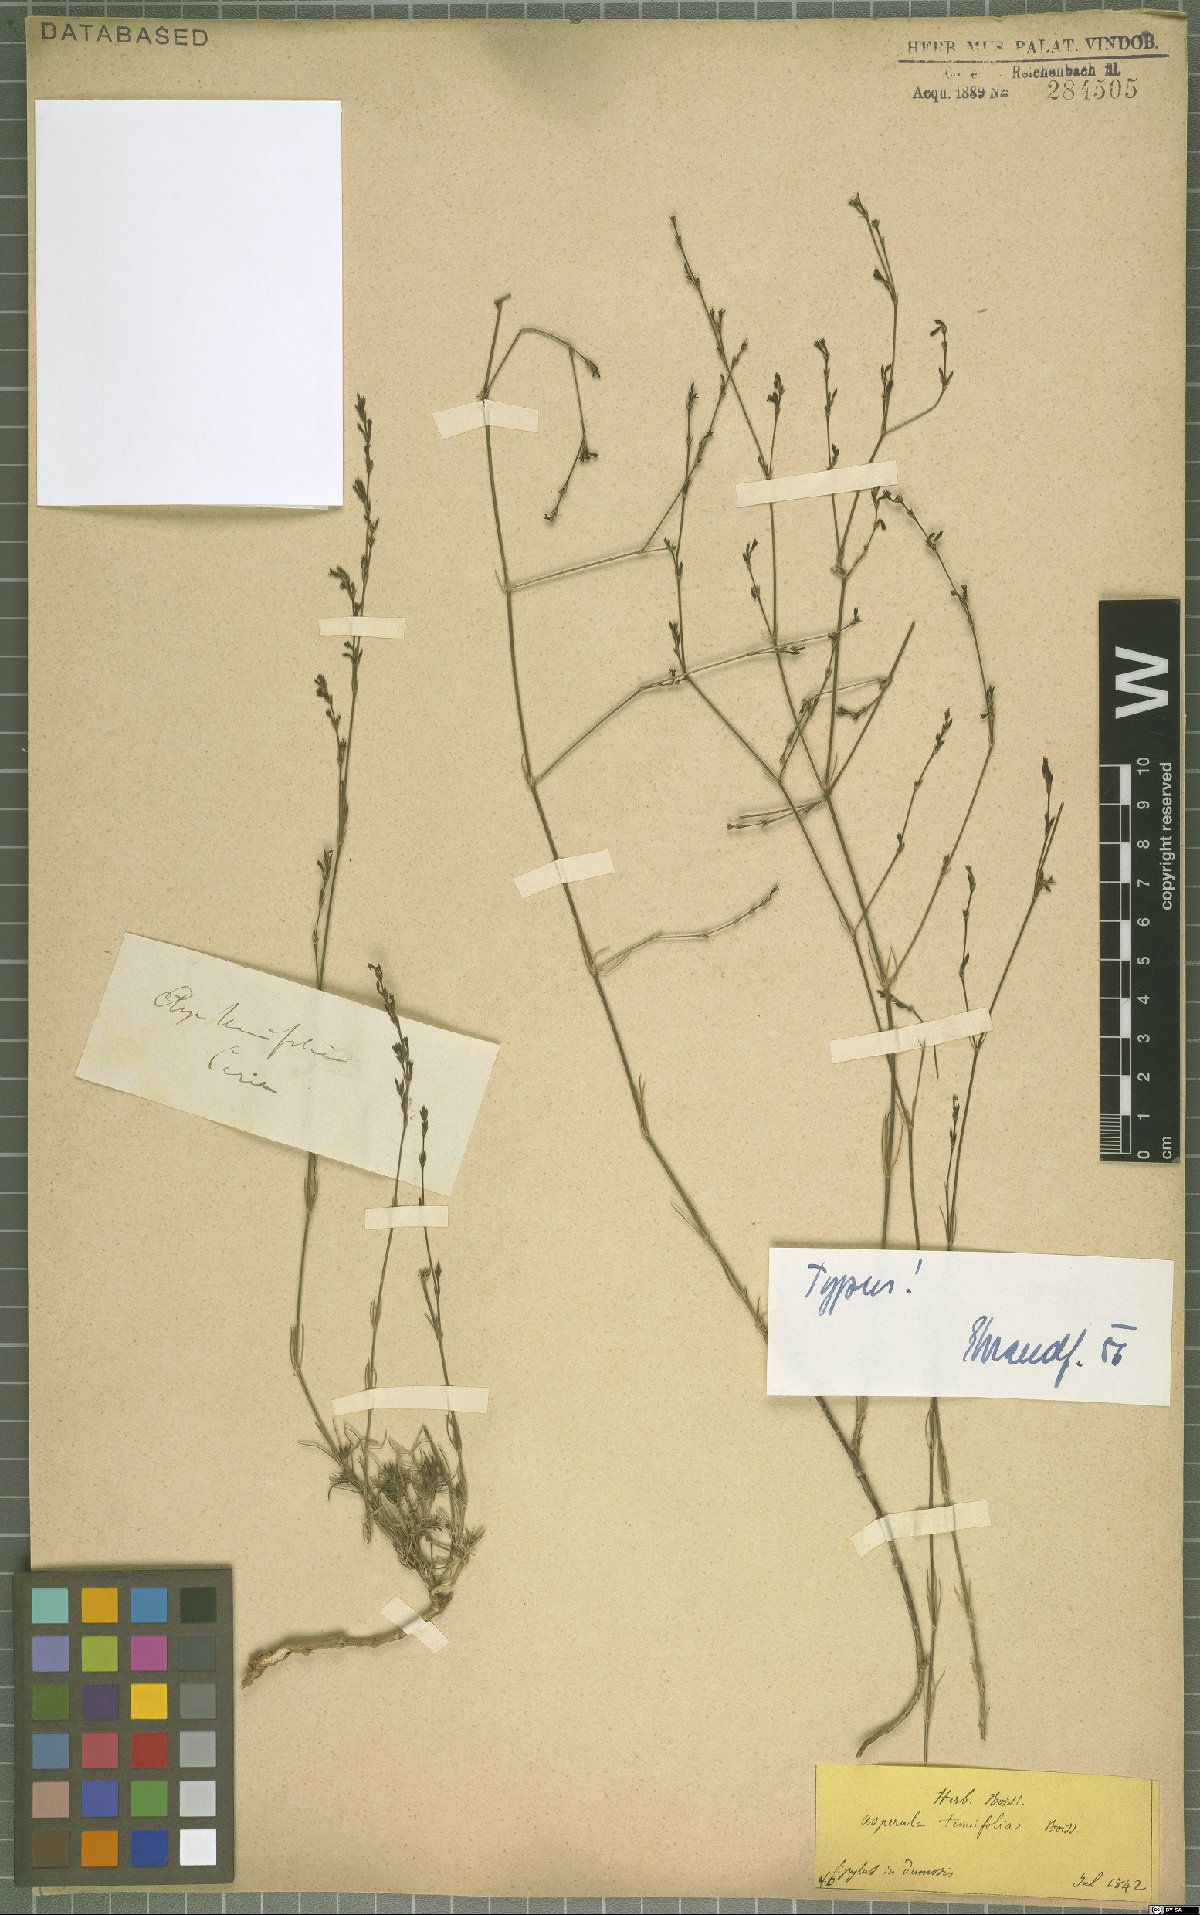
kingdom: Plantae
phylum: Tracheophyta
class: Magnoliopsida
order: Gentianales
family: Rubiaceae
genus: Cynanchica
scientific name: Cynanchica tenuifolia
